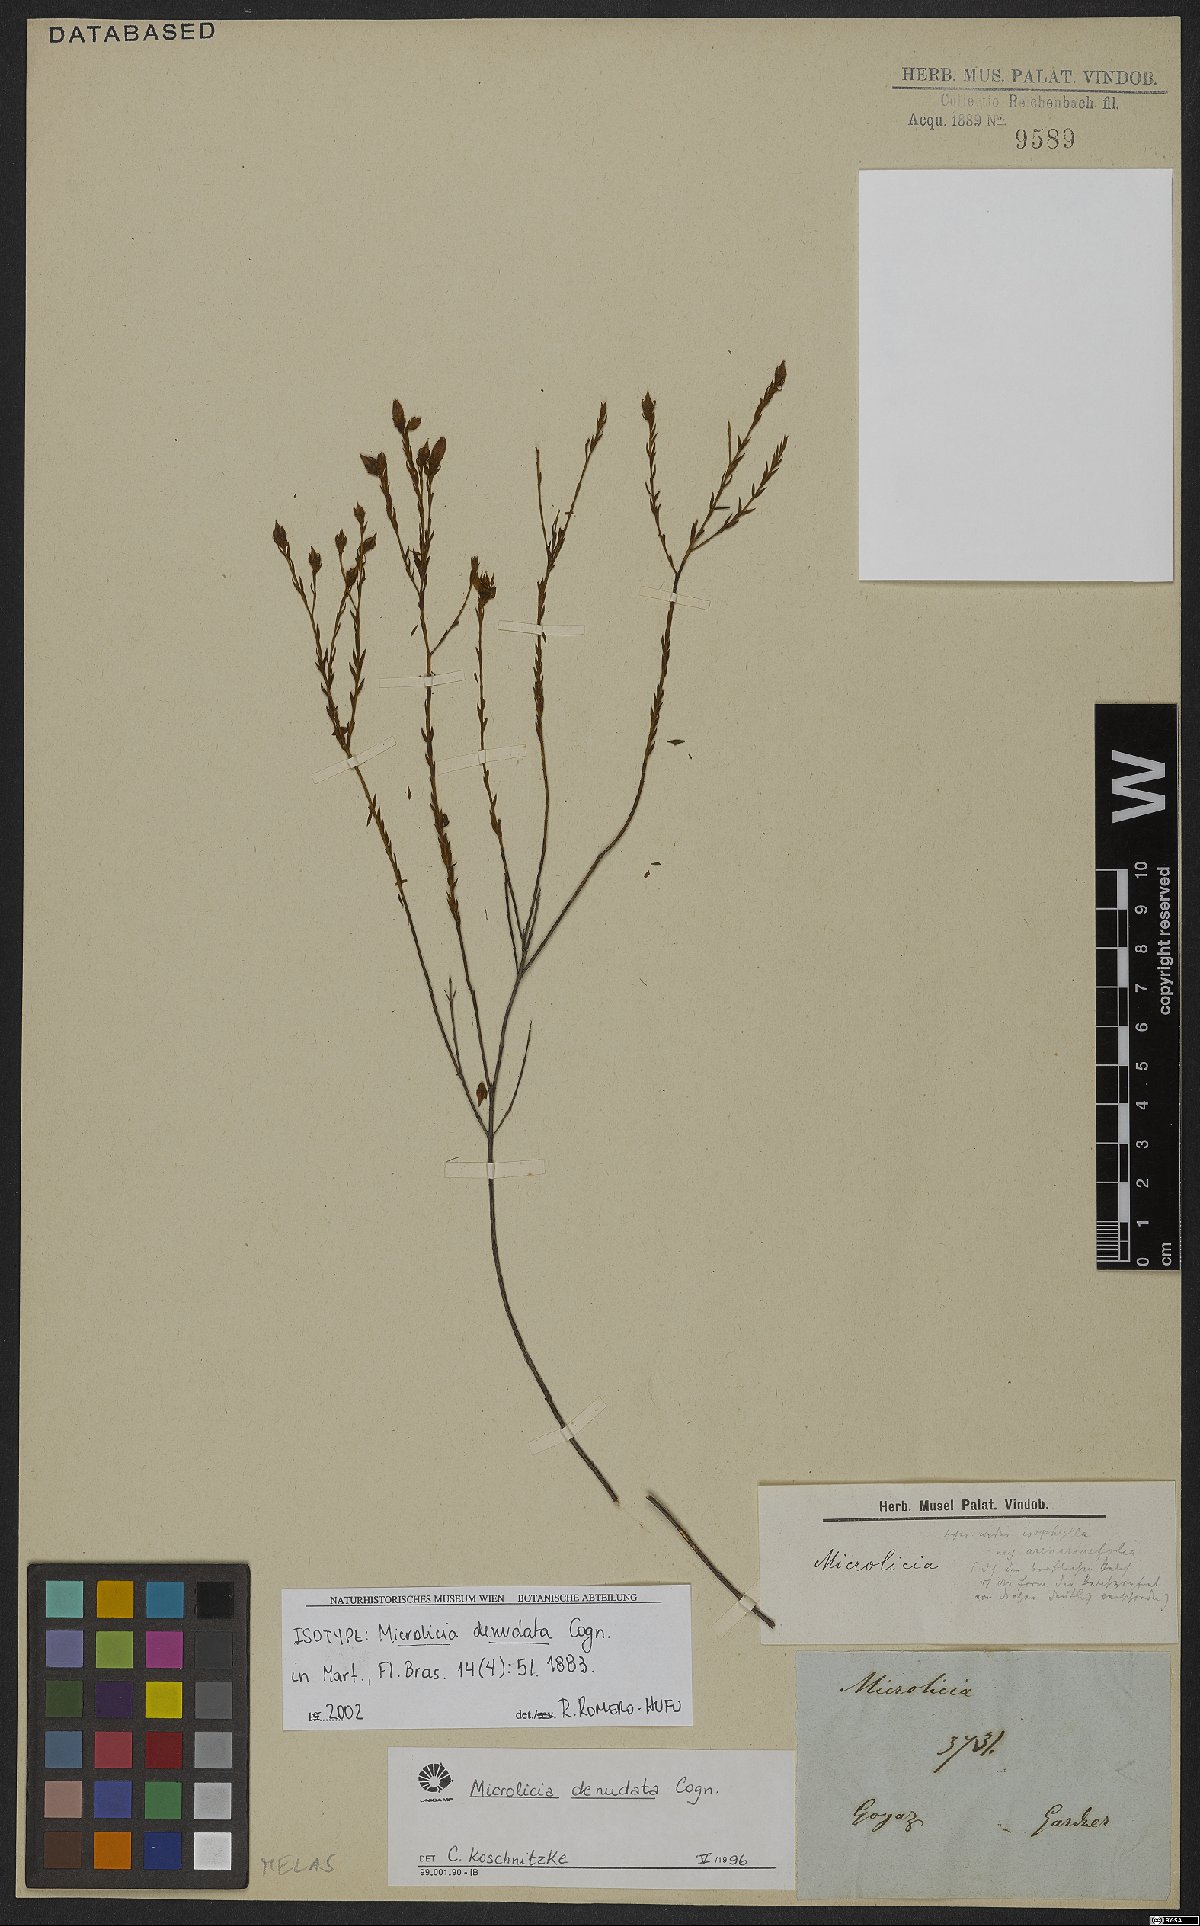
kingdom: Plantae
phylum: Tracheophyta
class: Magnoliopsida
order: Myrtales
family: Melastomataceae
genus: Microlicia
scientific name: Microlicia denudata
